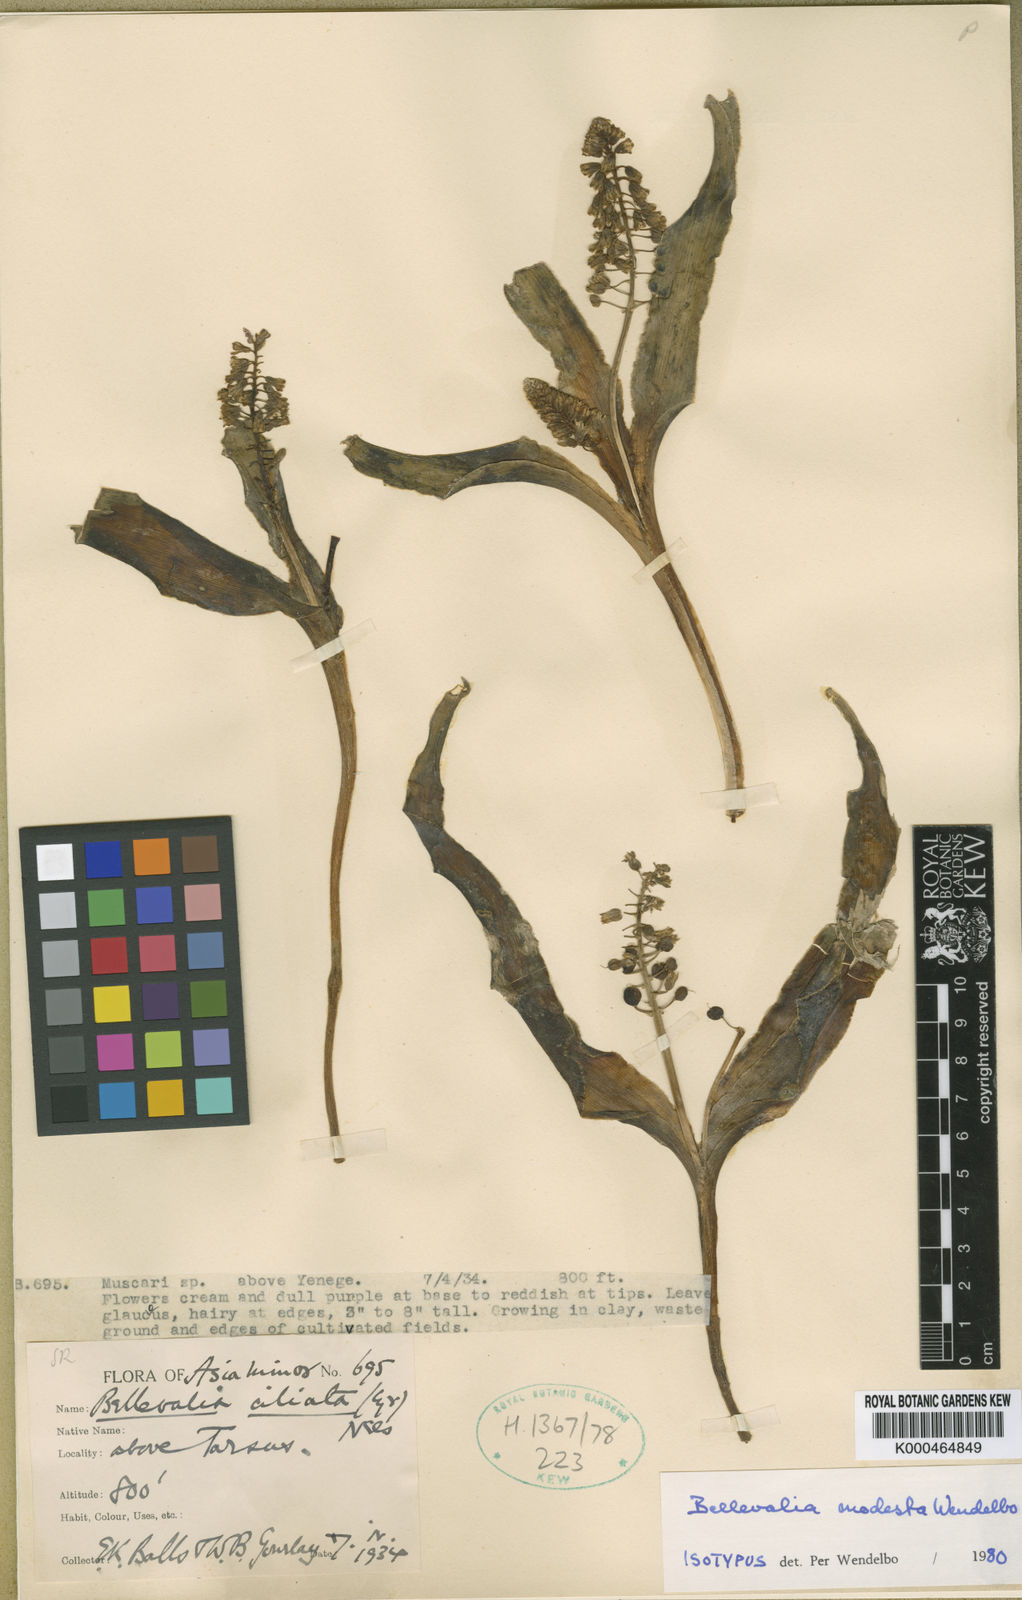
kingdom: Plantae
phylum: Tracheophyta
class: Liliopsida
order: Asparagales
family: Asparagaceae
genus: Bellevalia
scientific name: Bellevalia modesta
